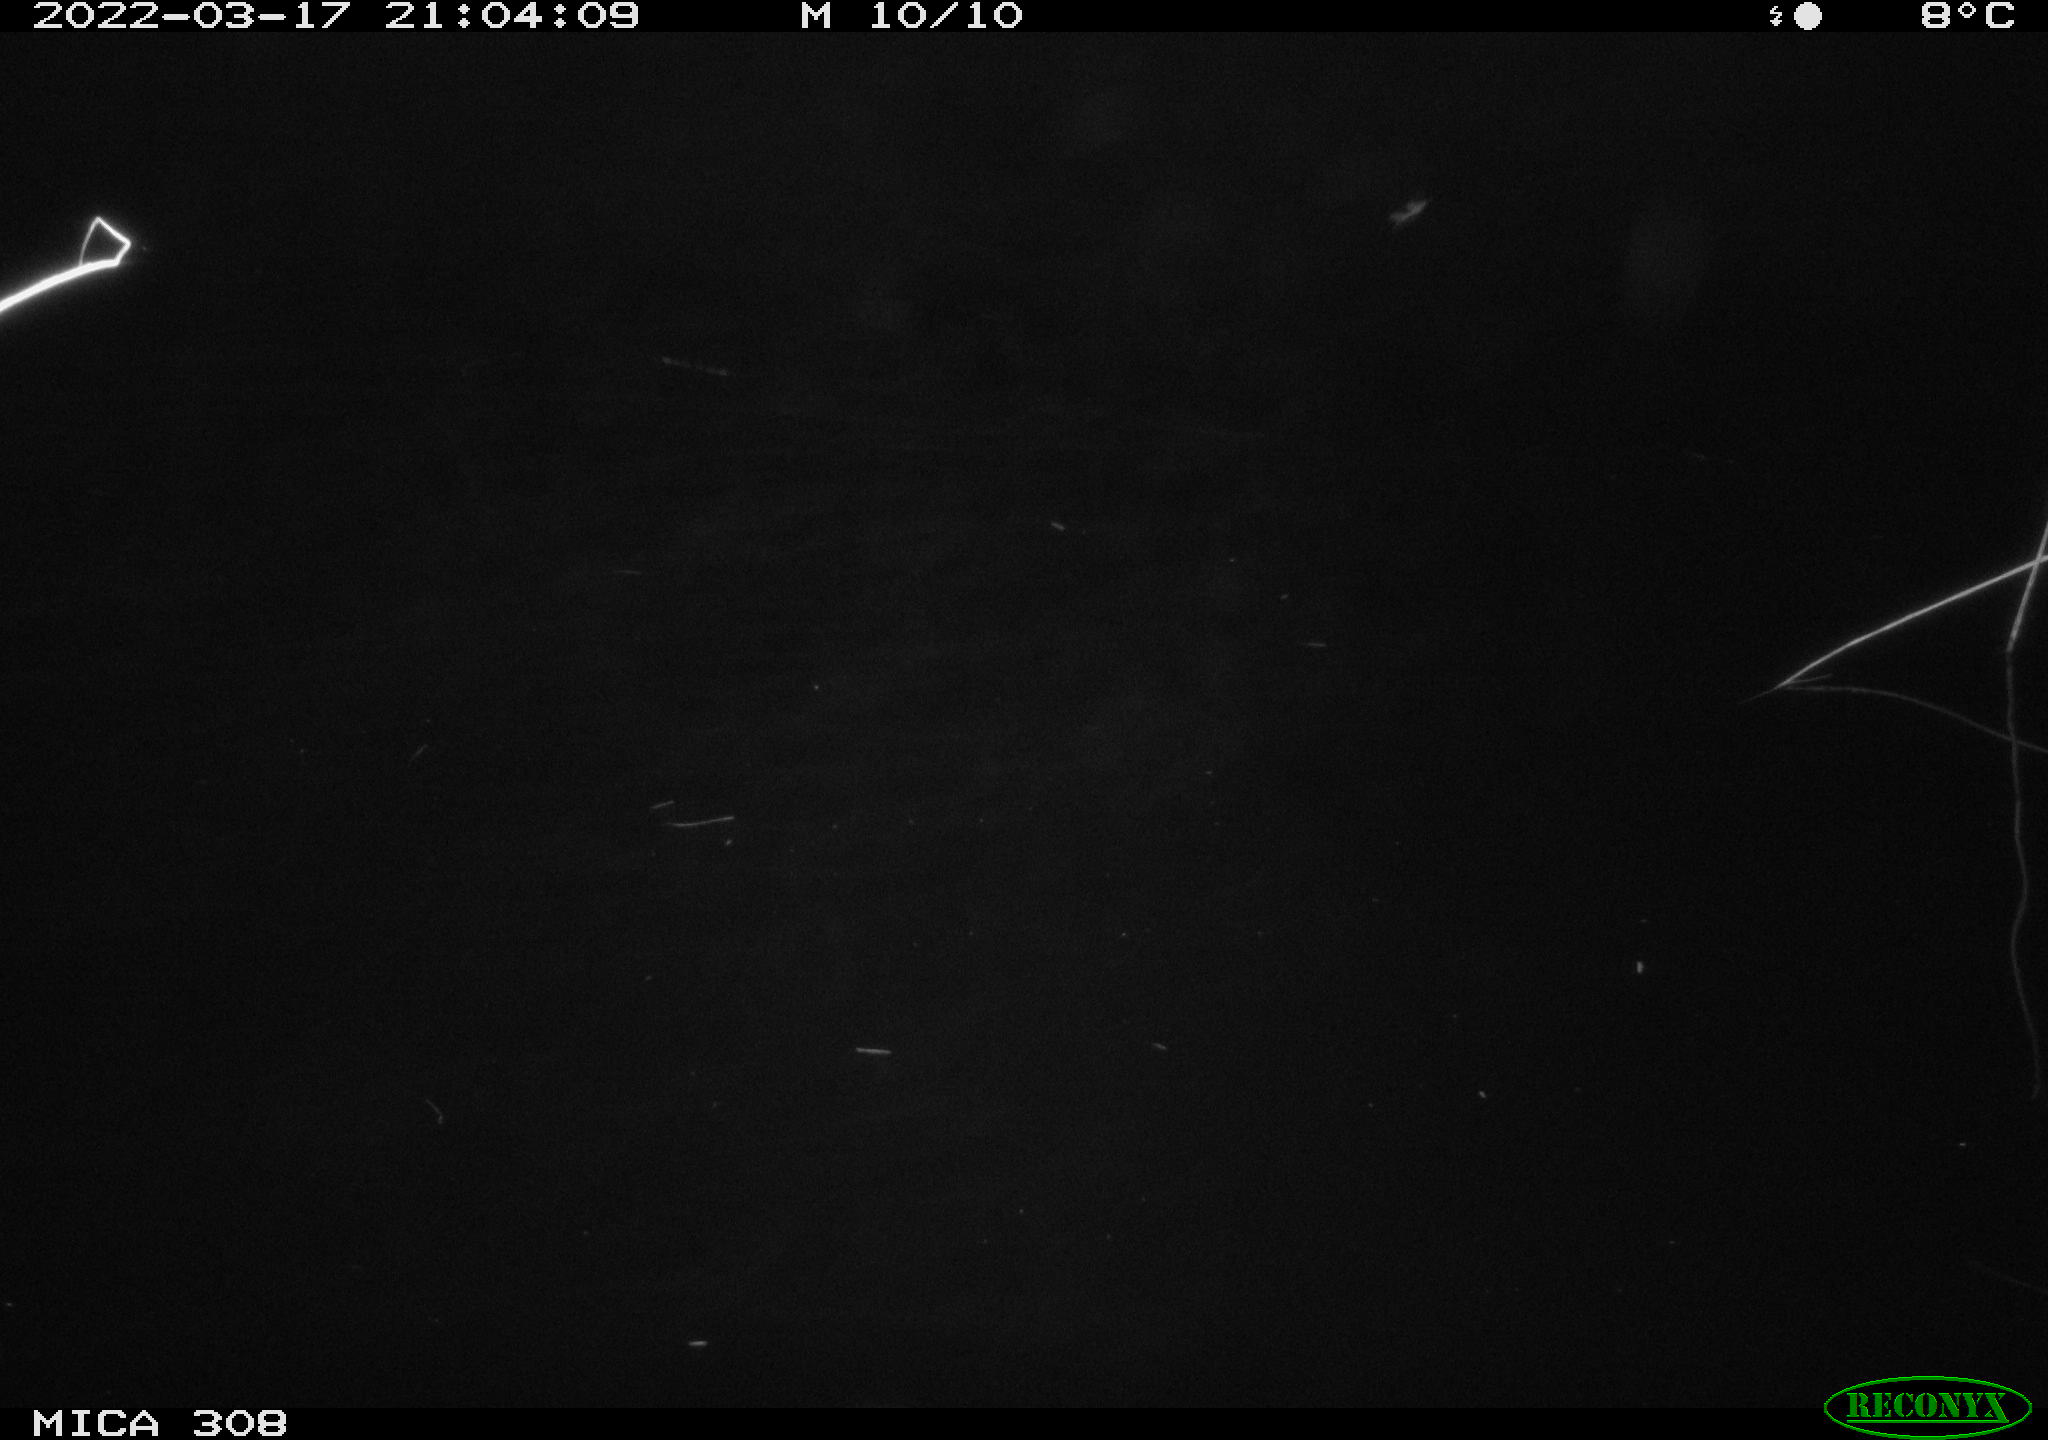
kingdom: Animalia
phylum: Chordata
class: Mammalia
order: Rodentia
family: Cricetidae
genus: Ondatra
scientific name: Ondatra zibethicus
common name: Muskrat
